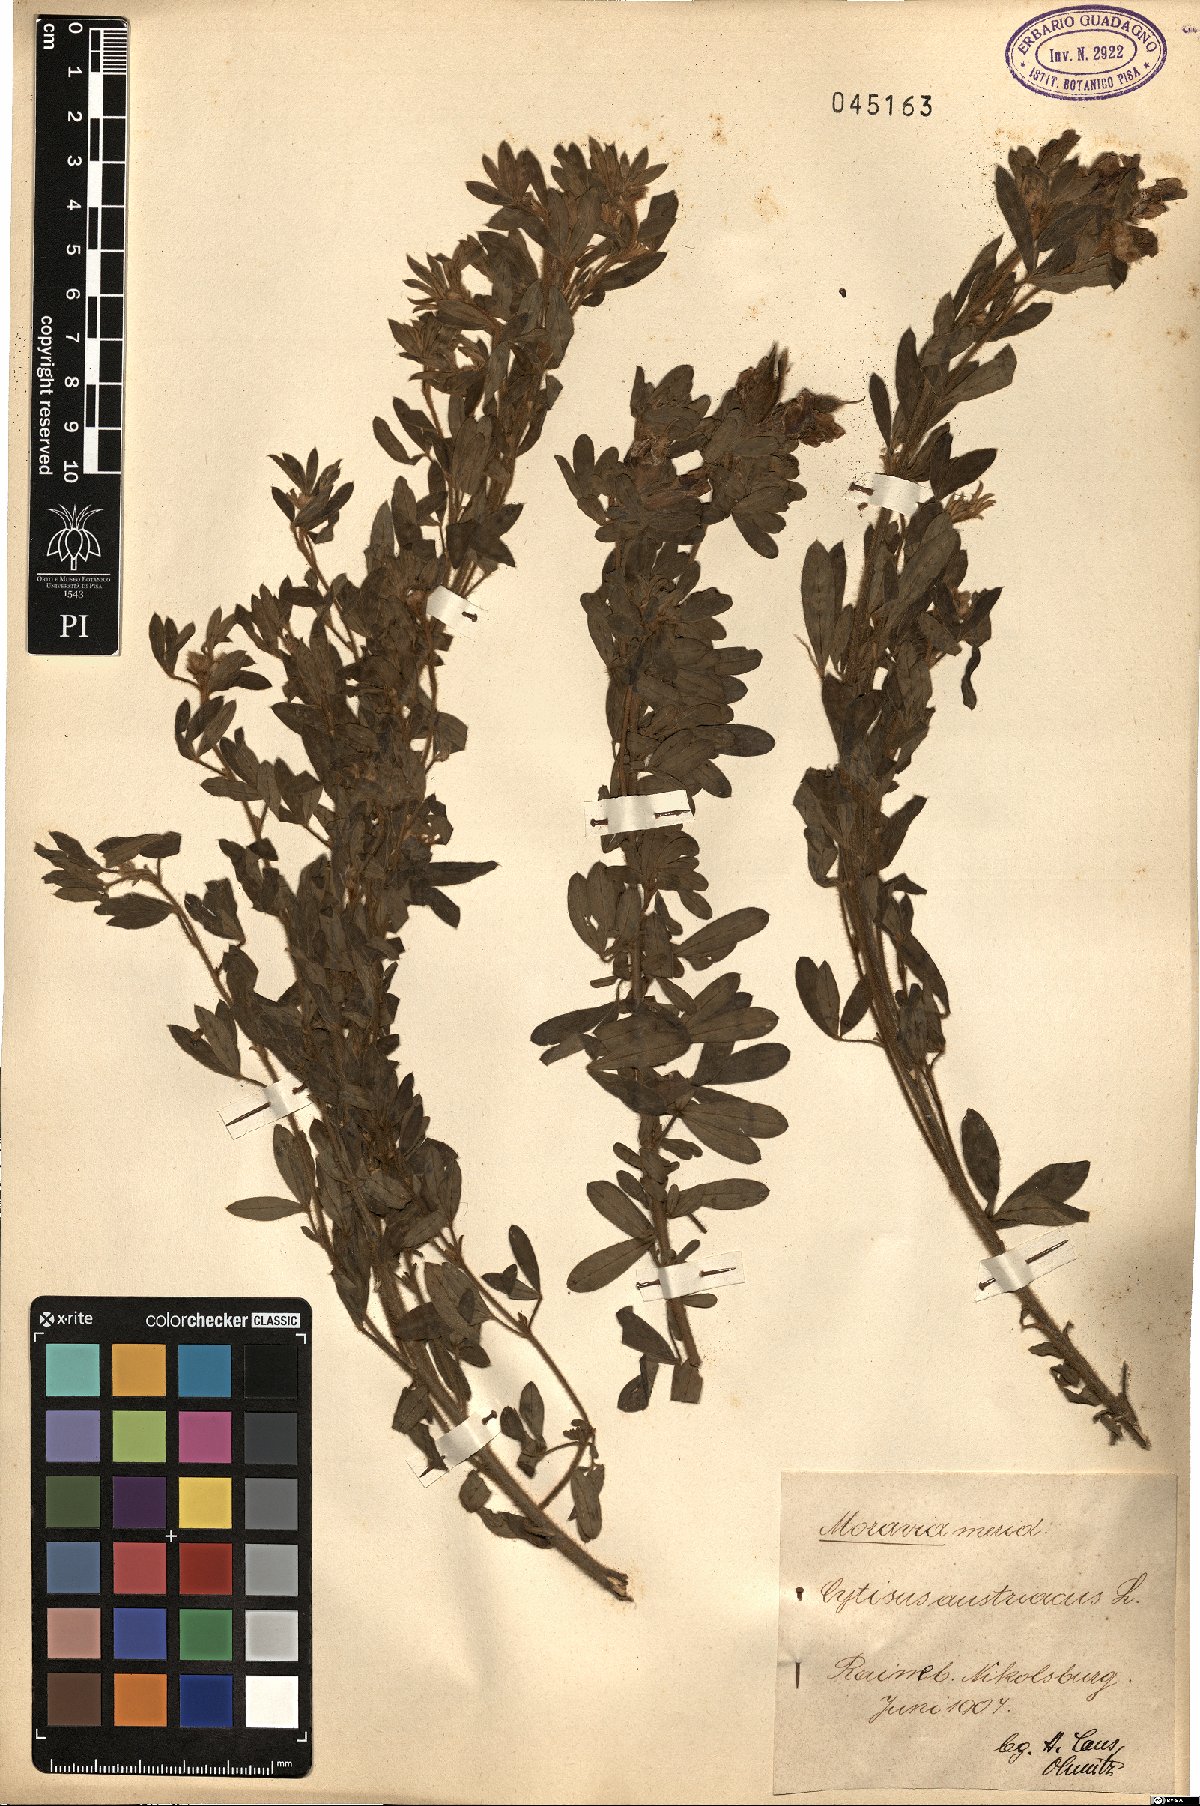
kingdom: Plantae
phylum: Tracheophyta
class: Magnoliopsida
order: Fabales
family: Fabaceae
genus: Chamaecytisus
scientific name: Chamaecytisus austriacus
